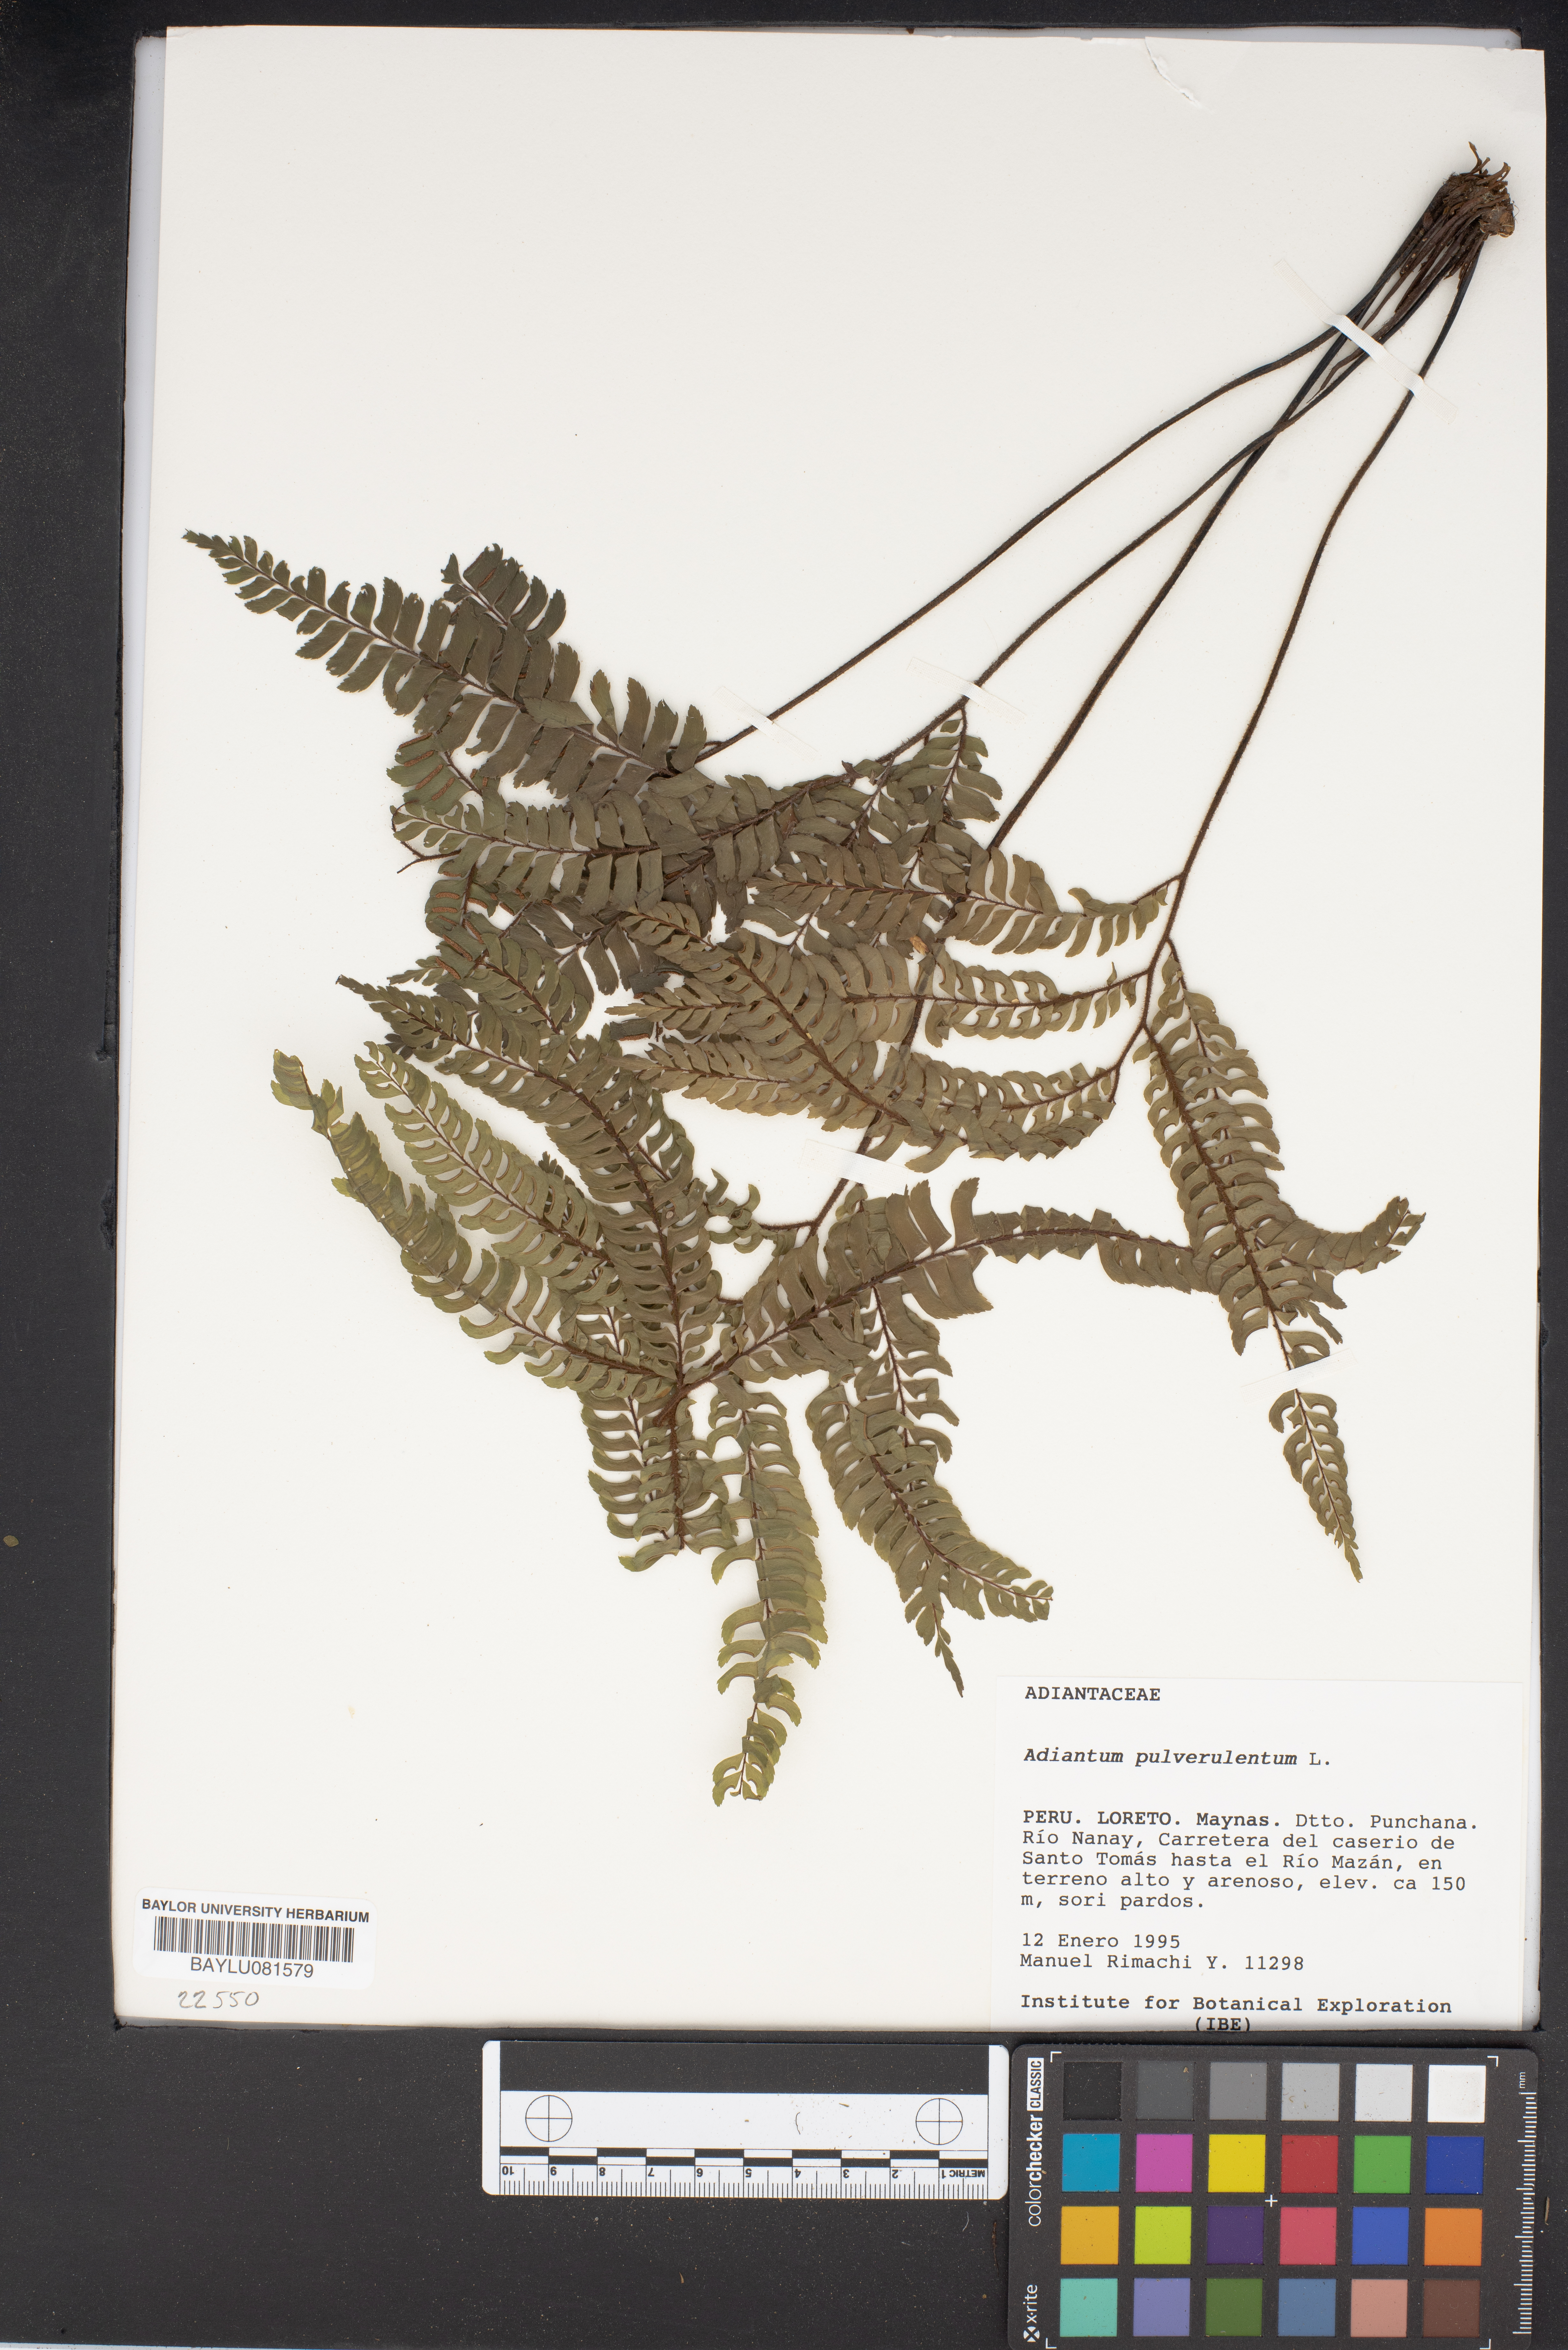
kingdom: Plantae
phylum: Tracheophyta
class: Polypodiopsida
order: Polypodiales
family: Pteridaceae
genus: Adiantum
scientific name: Adiantum pulverulentum
